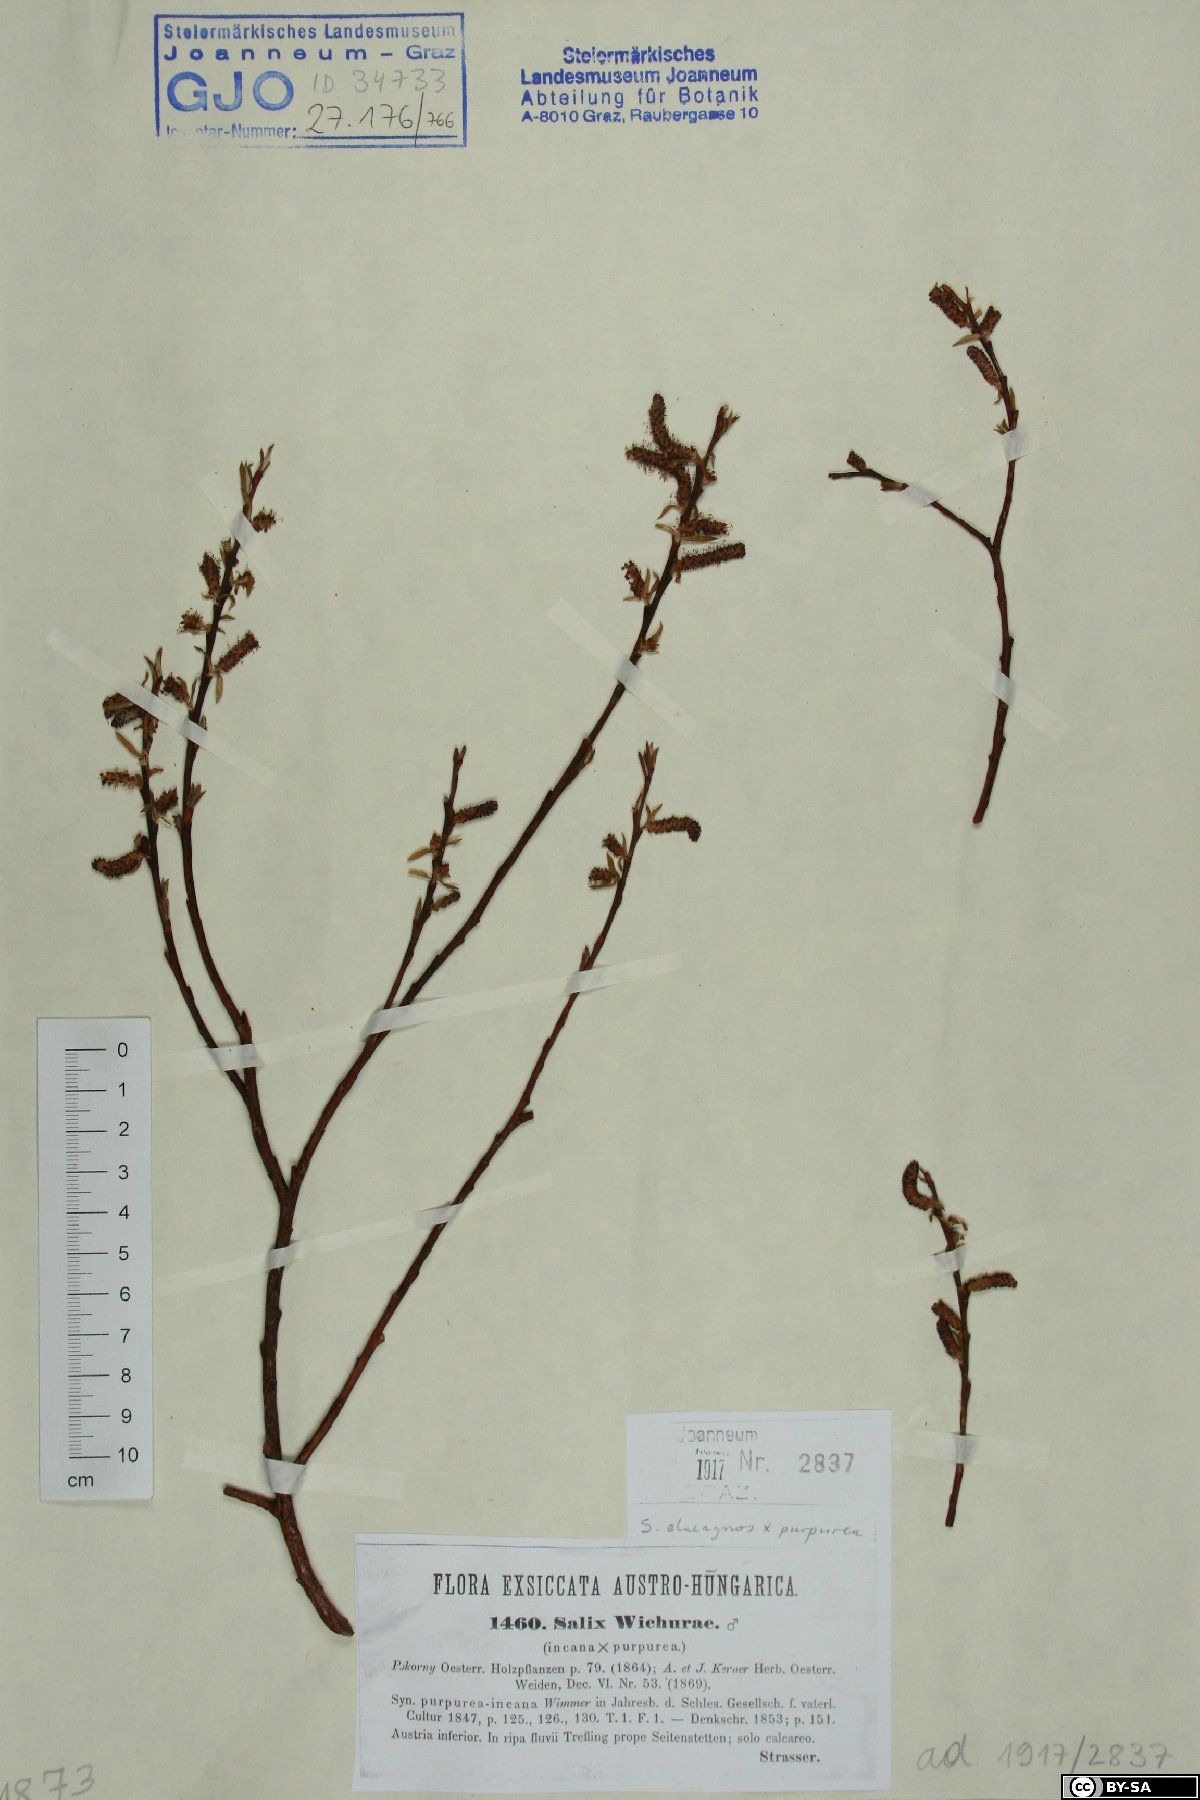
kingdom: Plantae
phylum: Tracheophyta
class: Magnoliopsida
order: Malpighiales
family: Salicaceae
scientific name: Salicaceae
